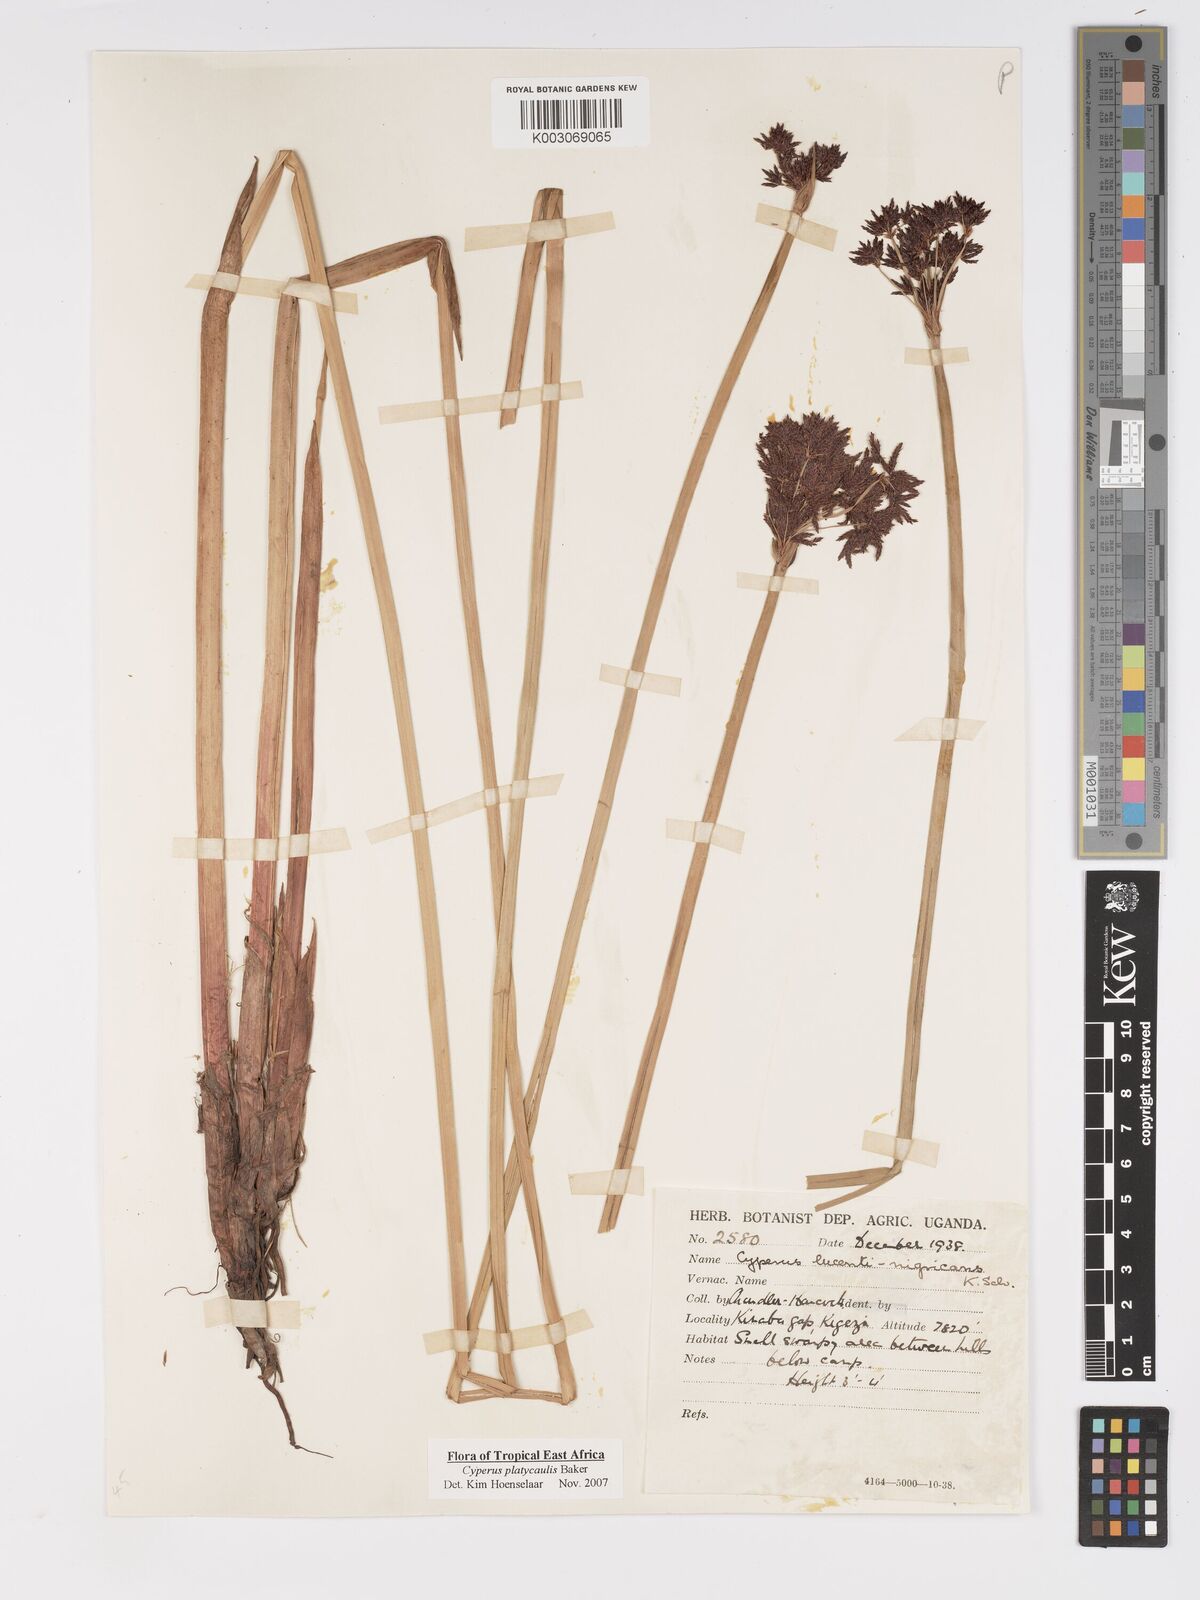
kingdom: Plantae
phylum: Tracheophyta
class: Liliopsida
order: Poales
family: Cyperaceae
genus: Cyperus
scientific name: Cyperus platycaulis
